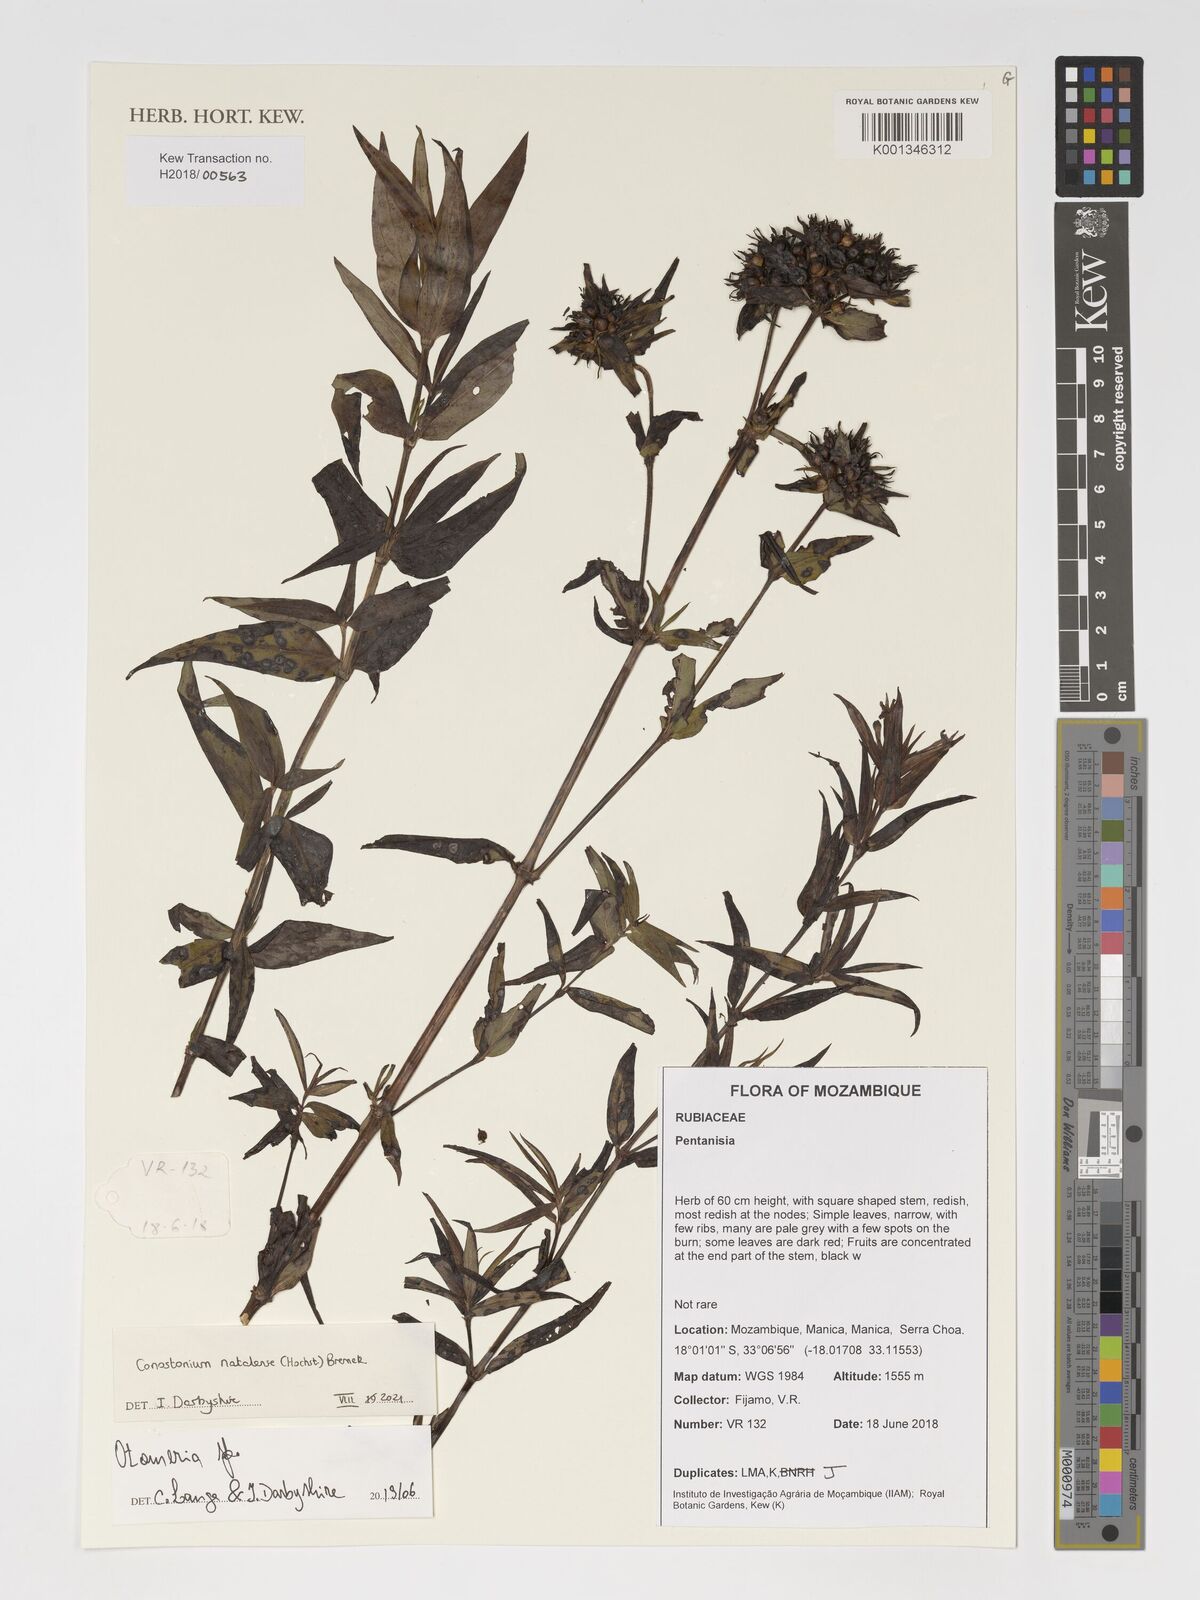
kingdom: Plantae
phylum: Tracheophyta
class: Magnoliopsida
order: Gentianales
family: Rubiaceae
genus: Conostomium
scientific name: Conostomium natalense
